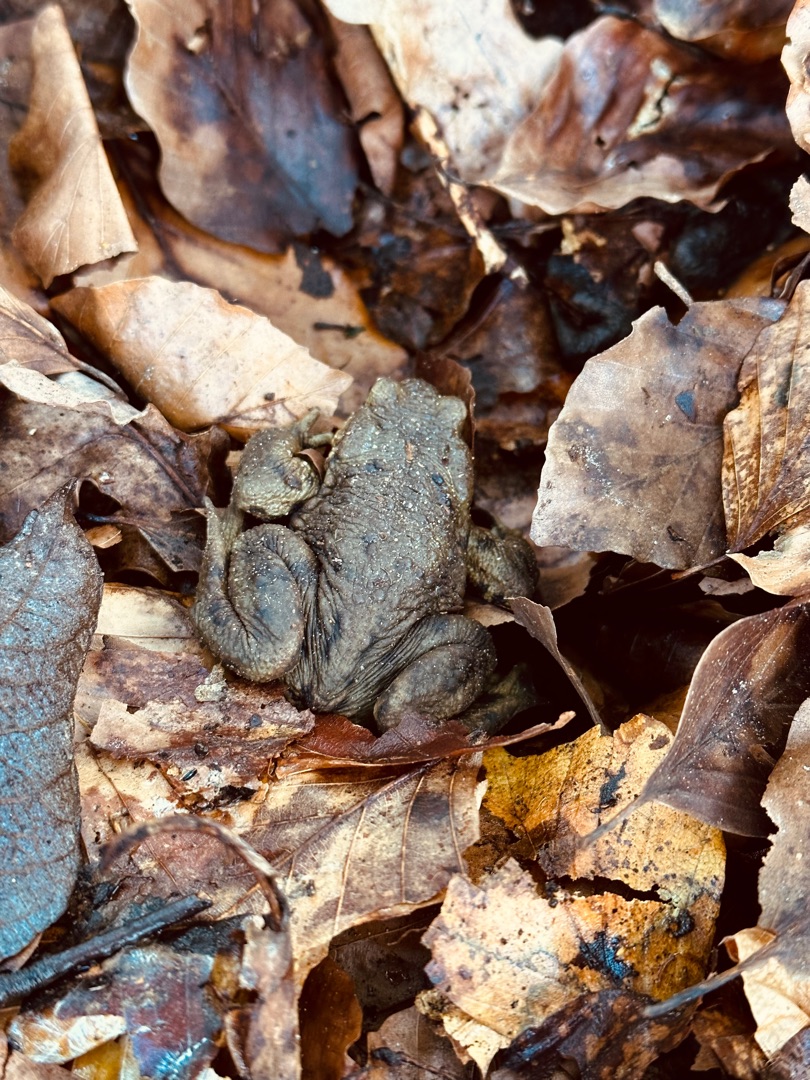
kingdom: Animalia
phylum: Chordata
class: Amphibia
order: Anura
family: Bufonidae
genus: Bufo
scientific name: Bufo bufo
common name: Skrubtudse
